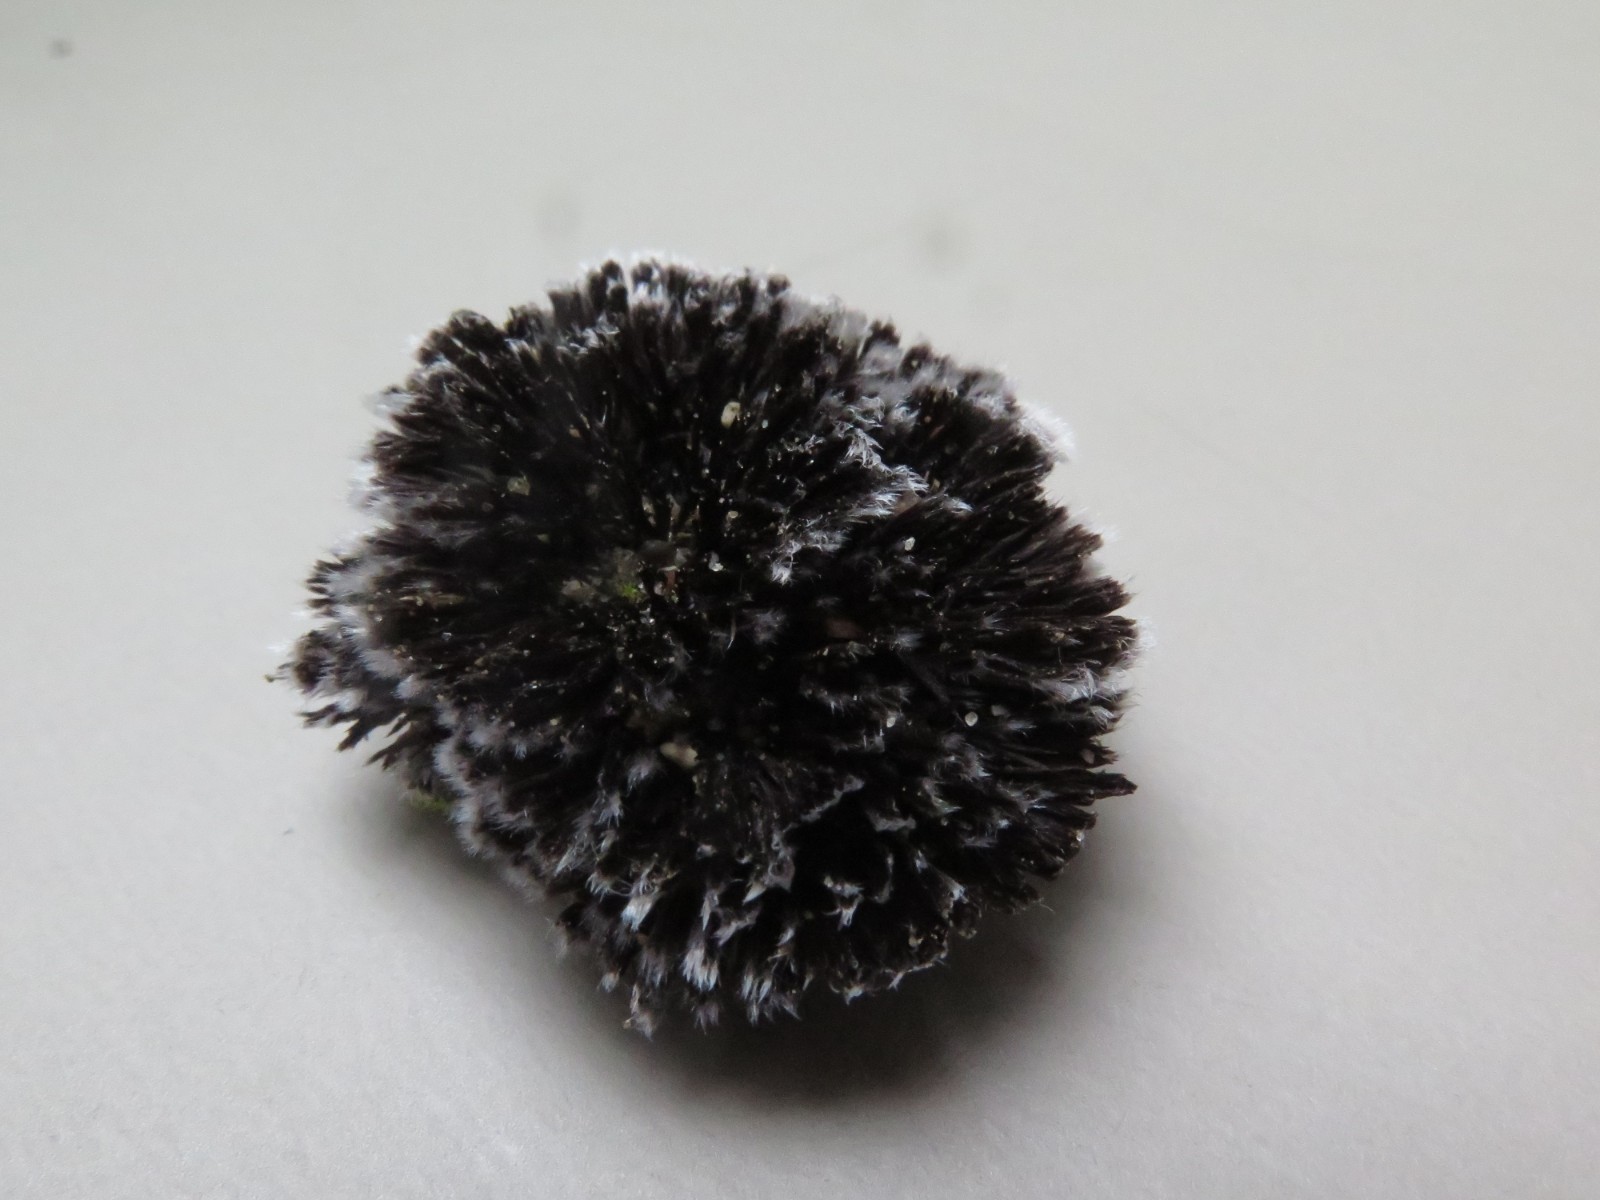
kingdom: Fungi
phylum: Basidiomycota
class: Agaricomycetes
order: Thelephorales
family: Thelephoraceae
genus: Thelephora
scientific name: Thelephora penicillata
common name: fladtrådt frynsesvamp
